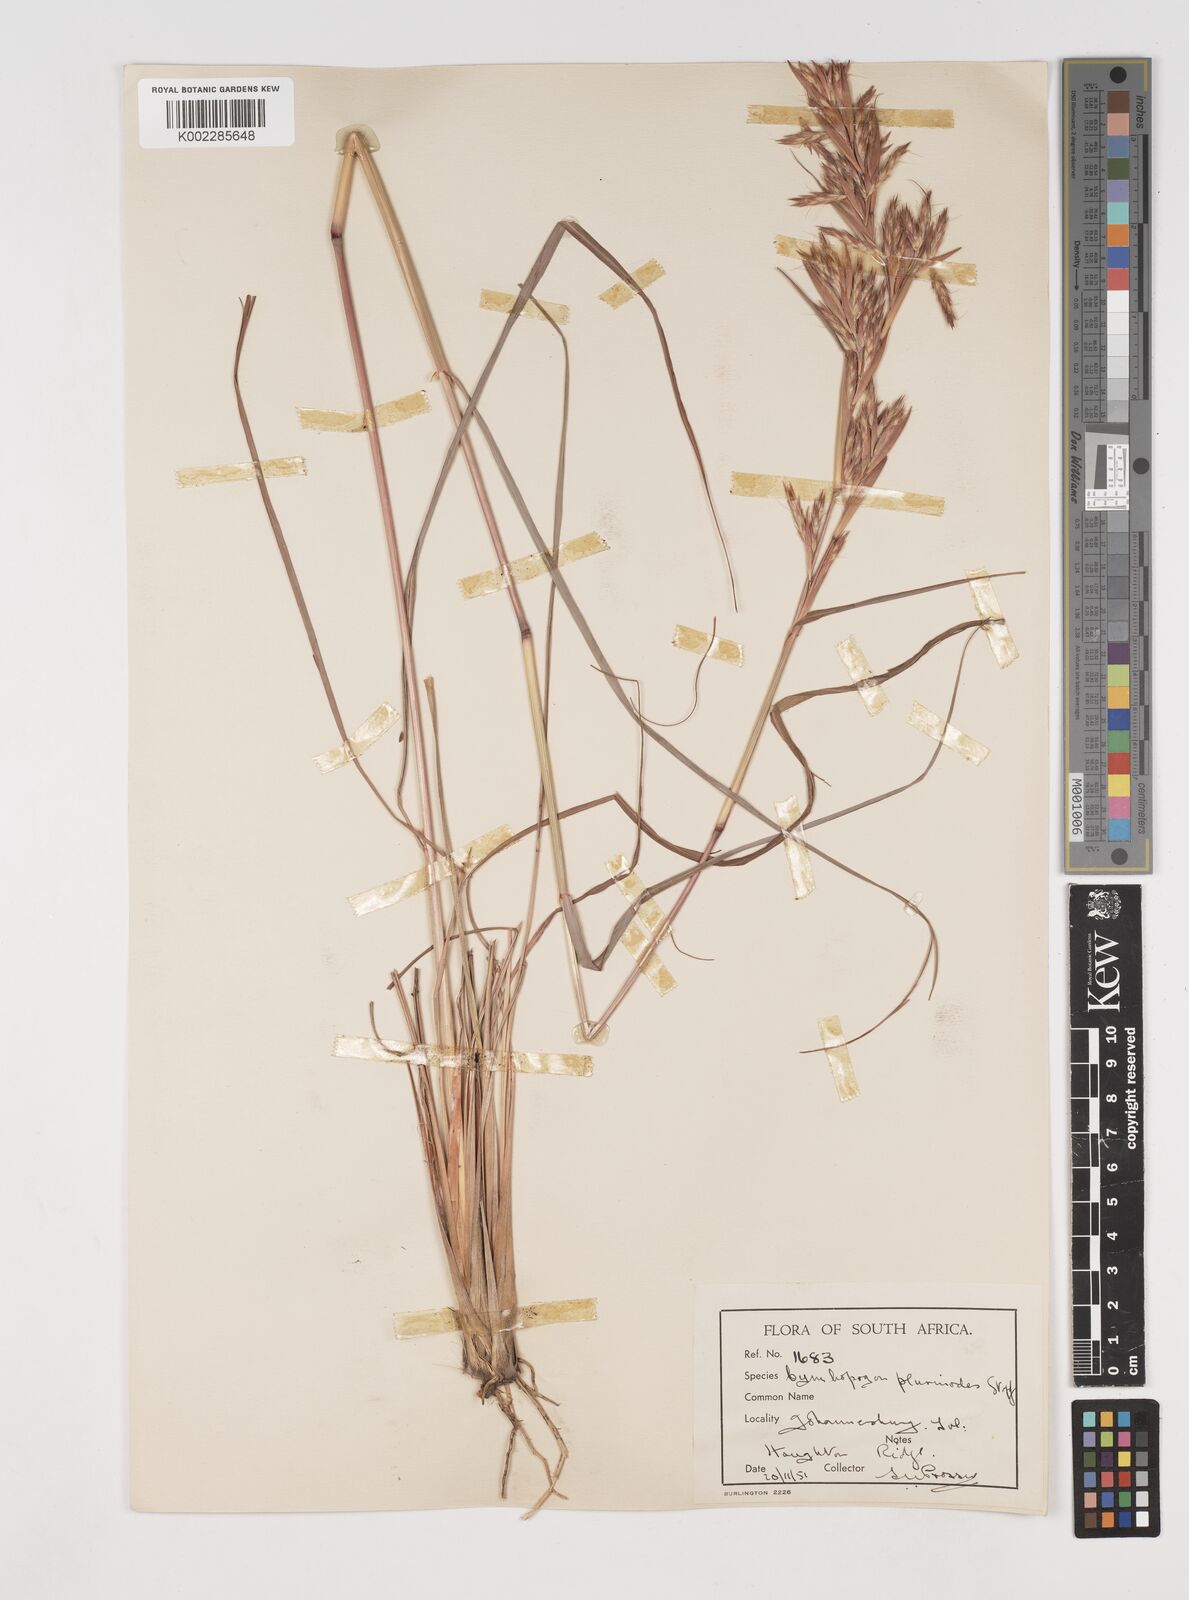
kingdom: Plantae
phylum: Tracheophyta
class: Liliopsida
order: Poales
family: Poaceae
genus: Cymbopogon
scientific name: Cymbopogon marginatus
